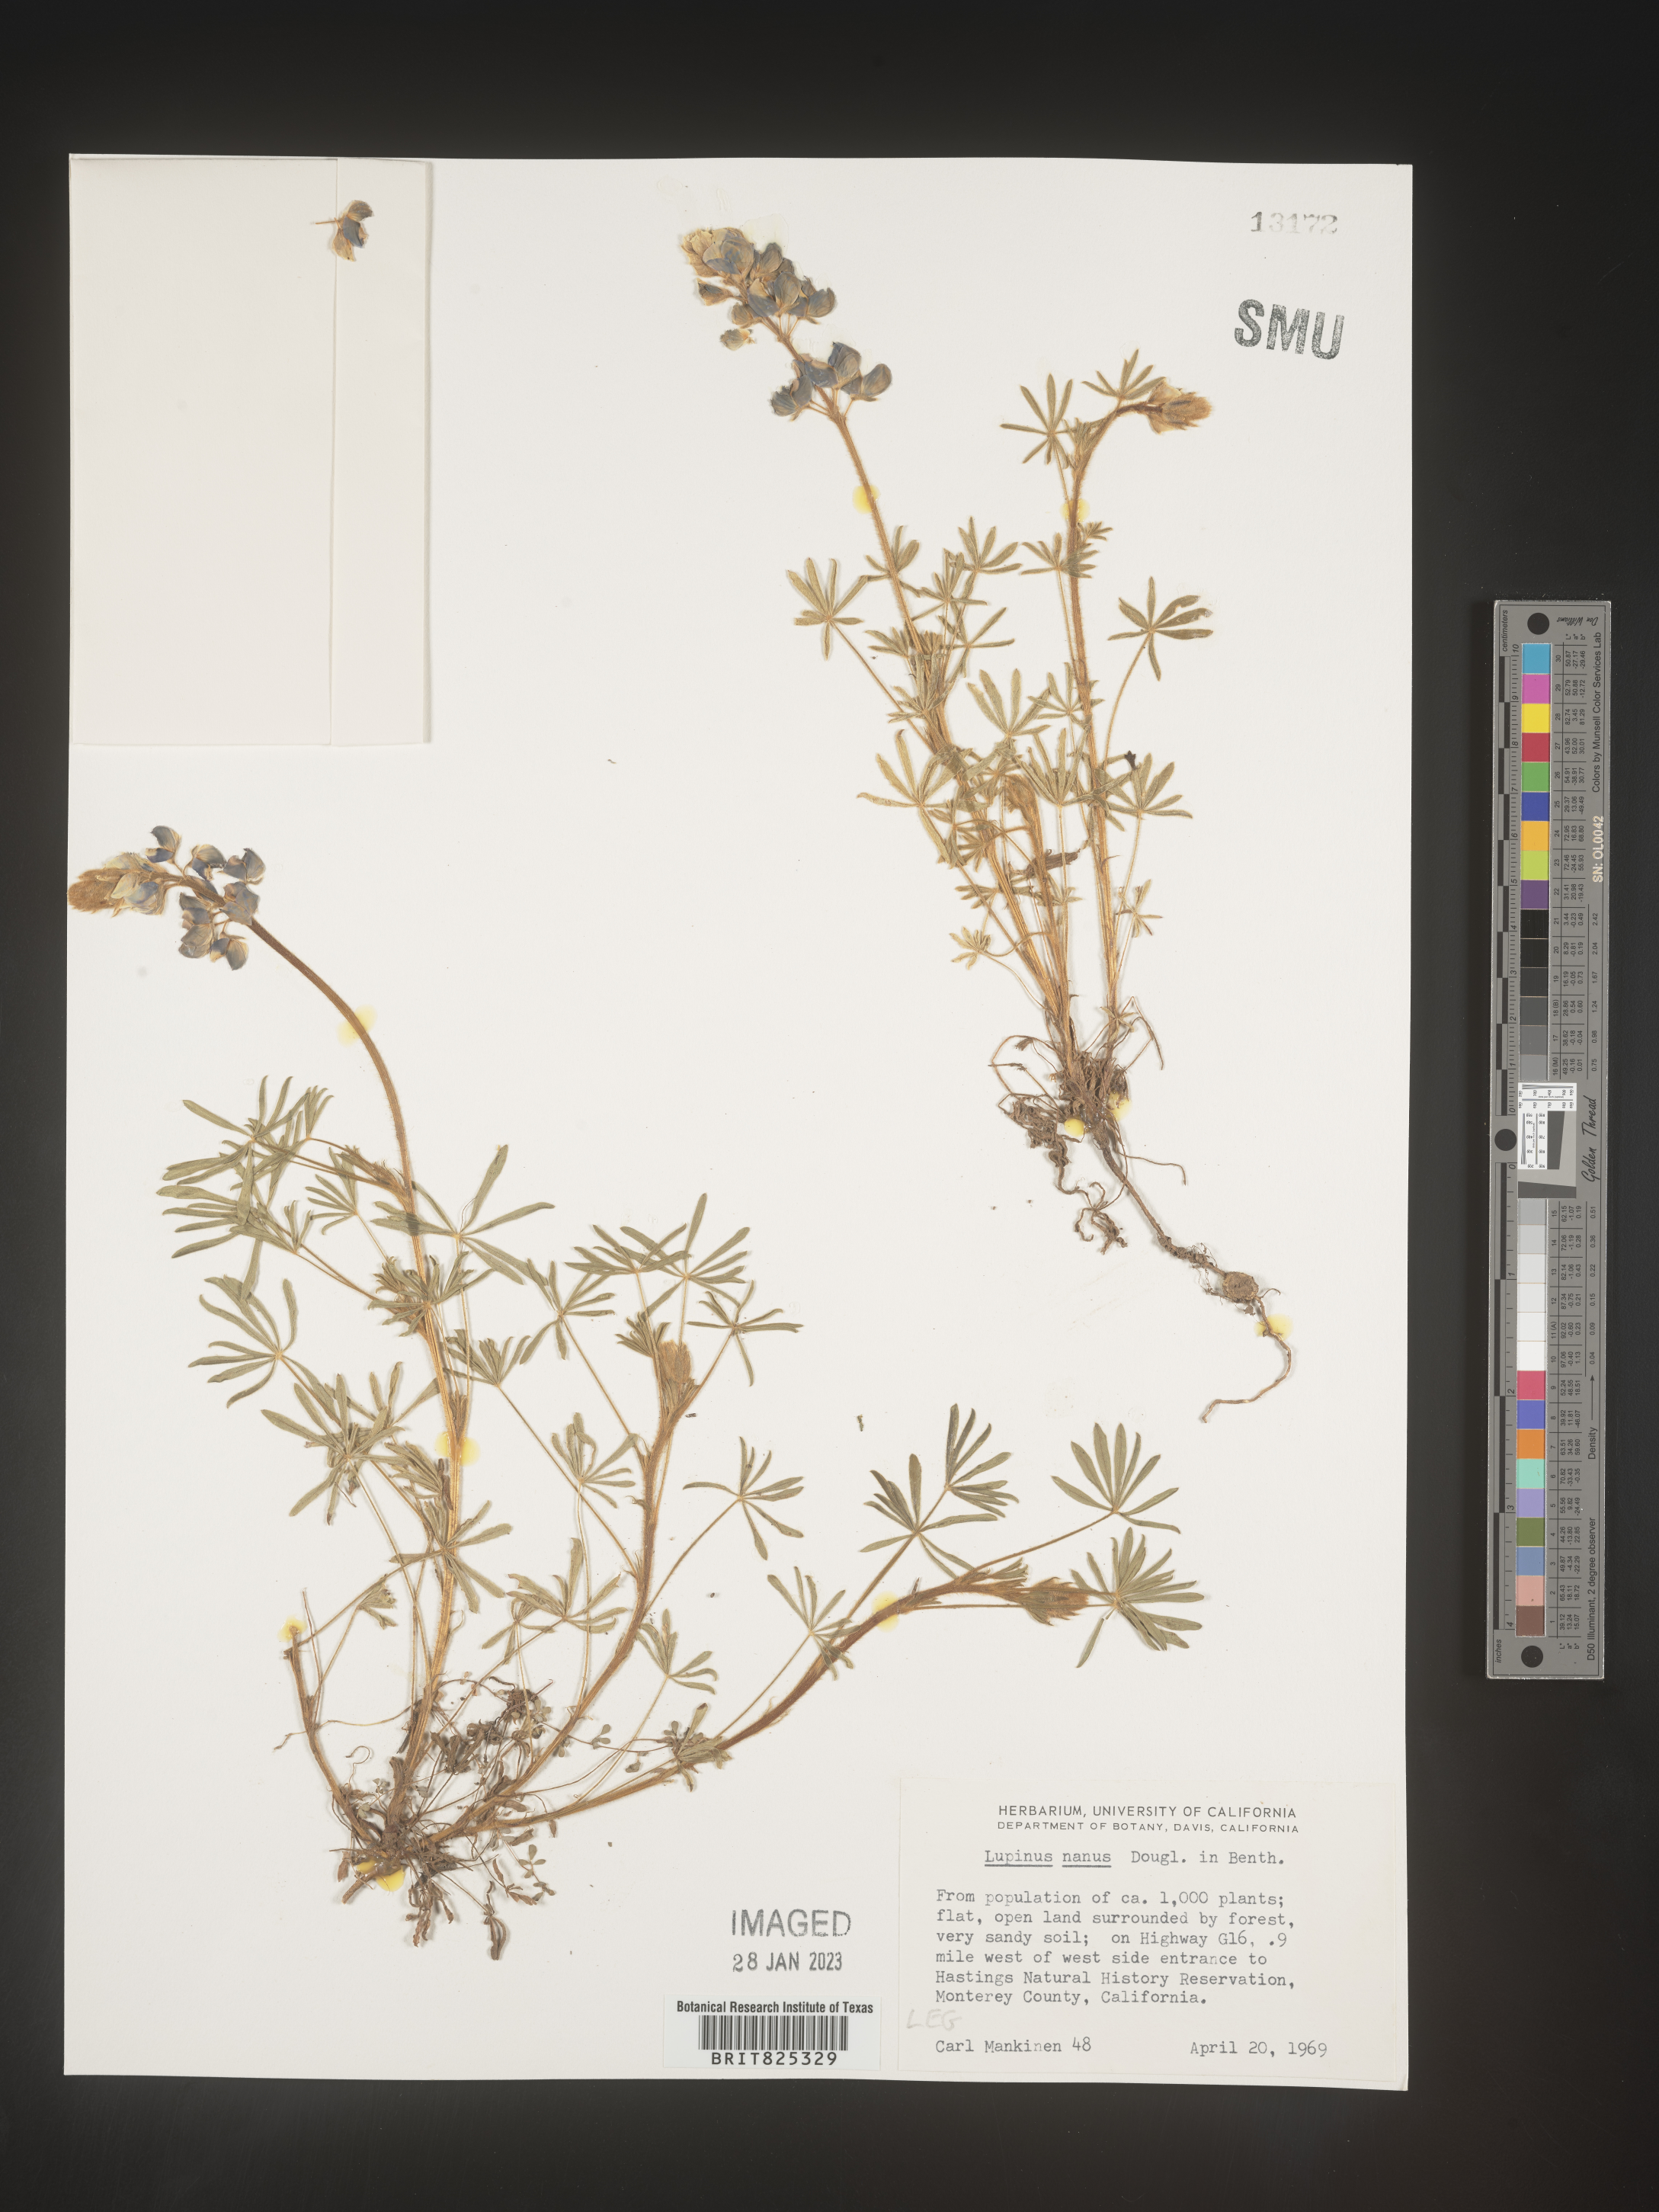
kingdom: Plantae
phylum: Tracheophyta
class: Magnoliopsida
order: Fabales
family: Fabaceae
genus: Lupinus
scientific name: Lupinus nanus
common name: Orean blue lupin
